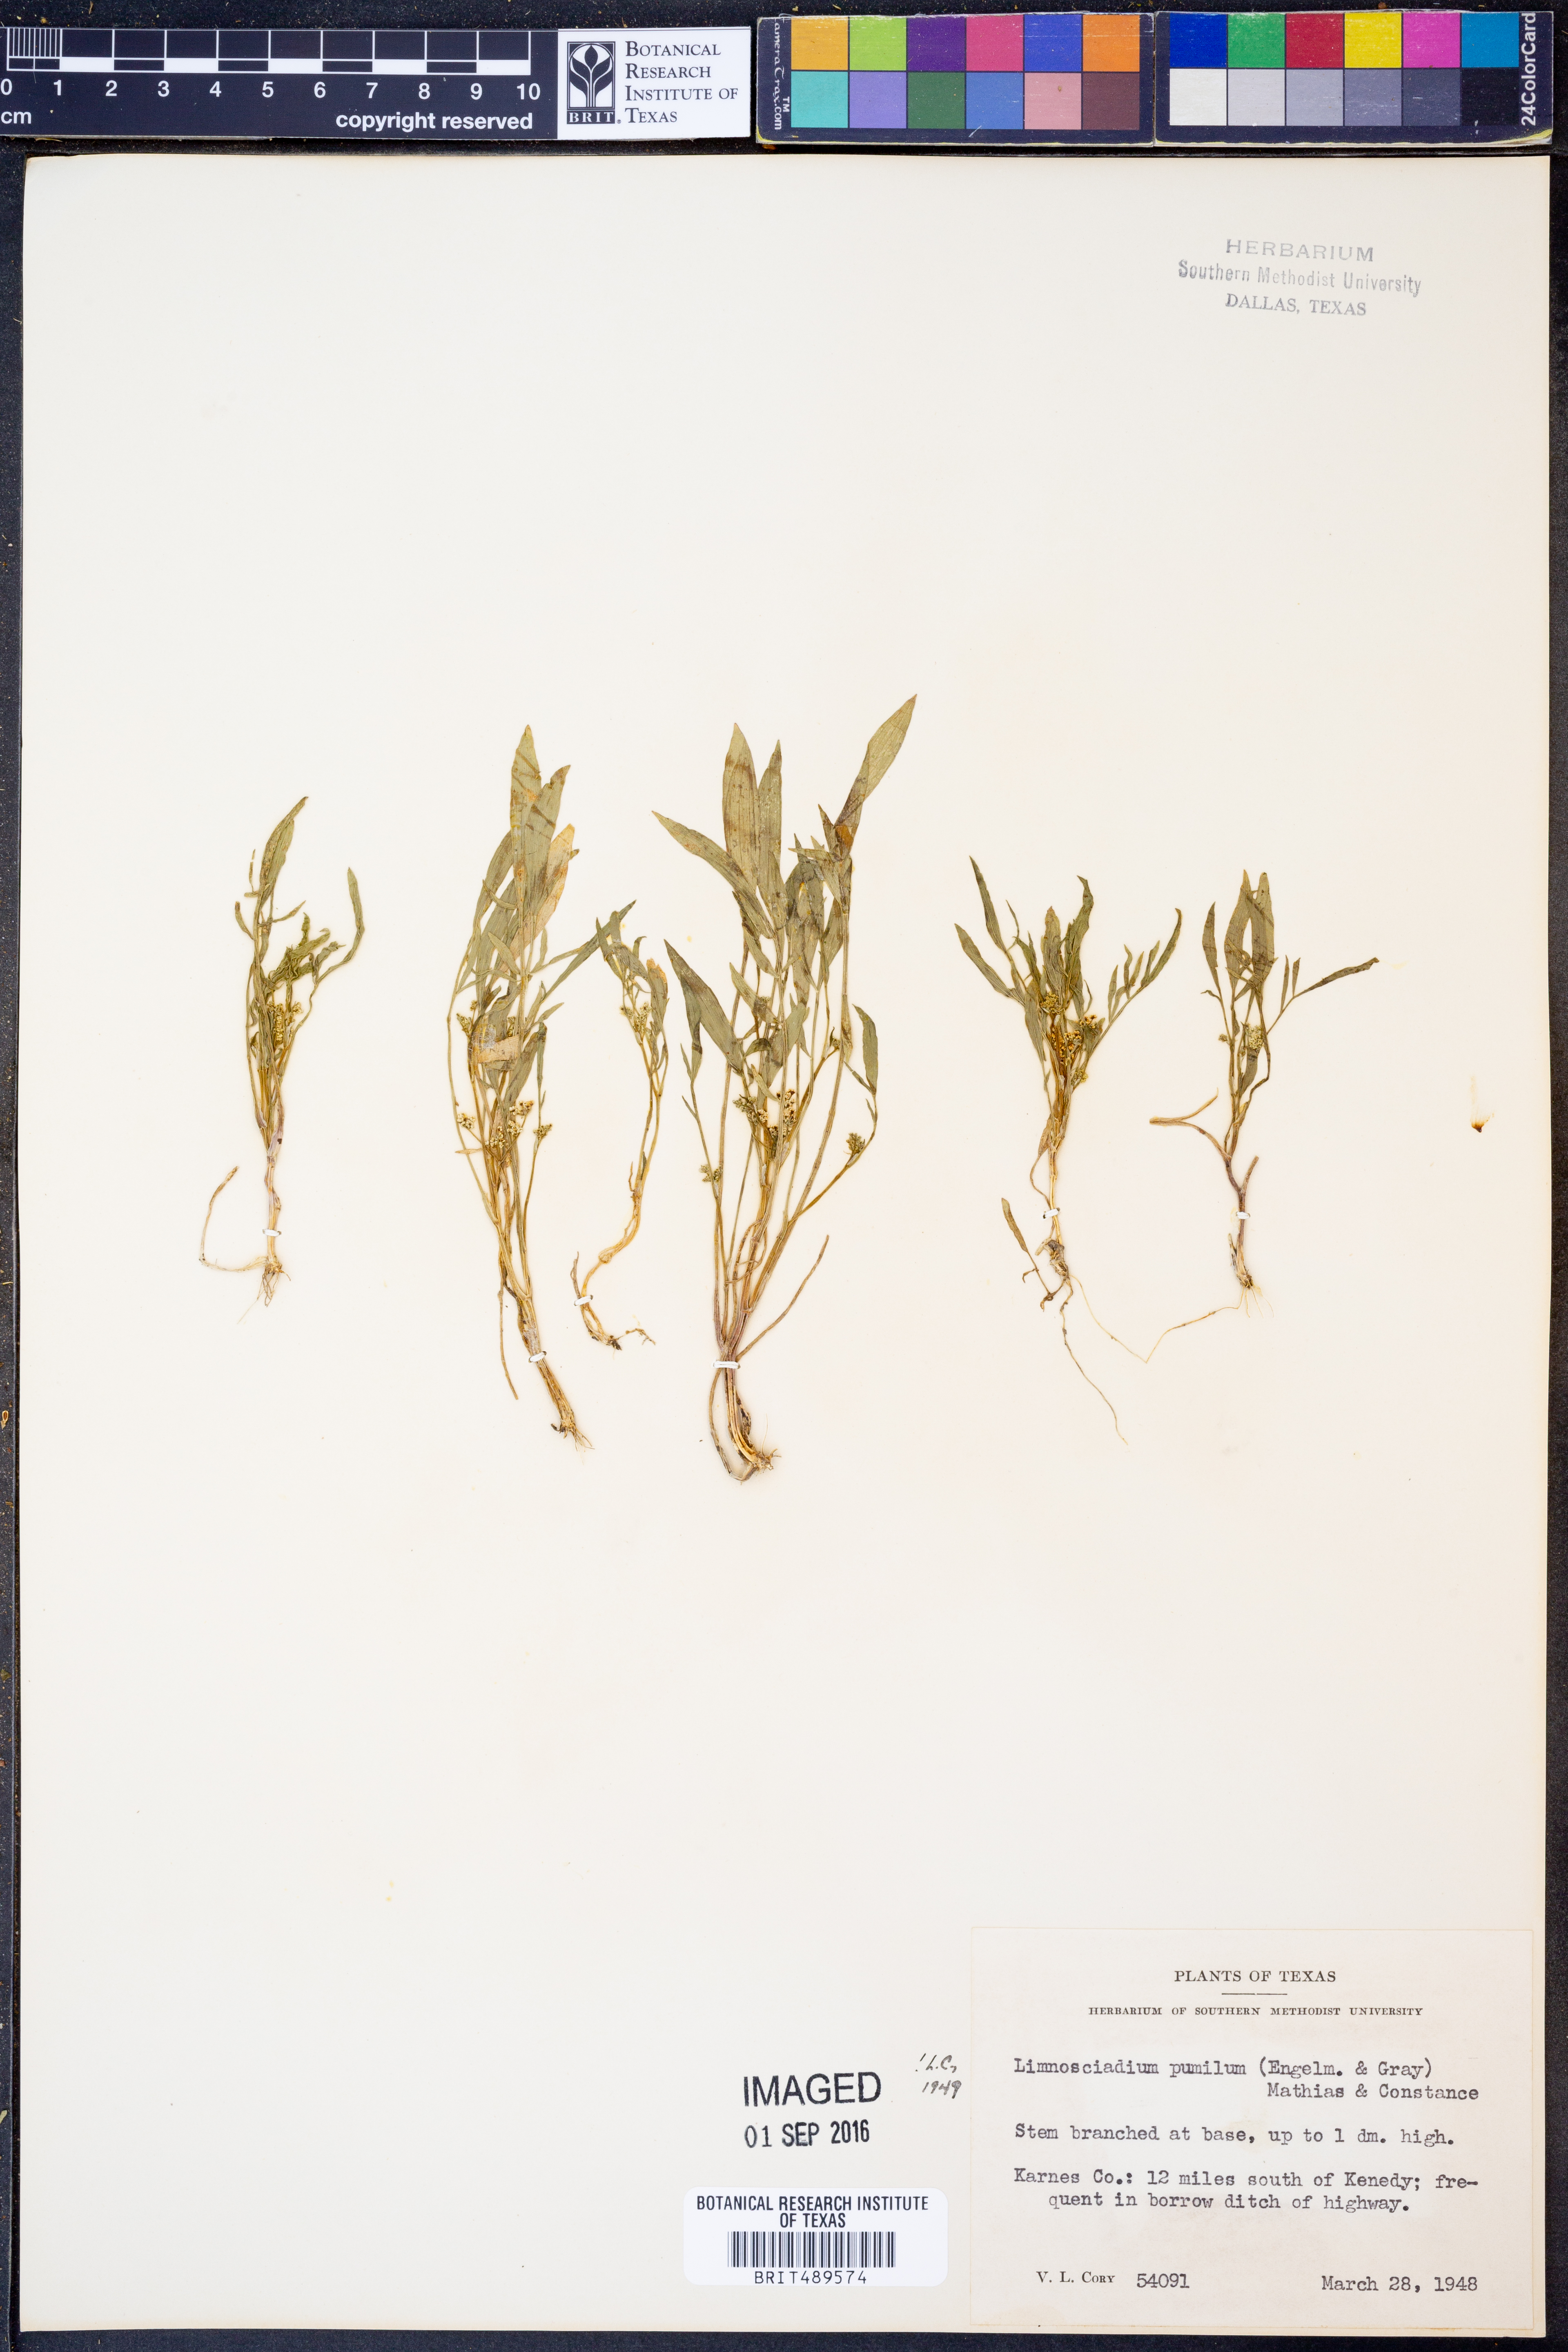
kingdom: Plantae
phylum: Tracheophyta
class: Magnoliopsida
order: Apiales
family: Apiaceae
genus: Limnosciadium
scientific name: Limnosciadium pinnatum
